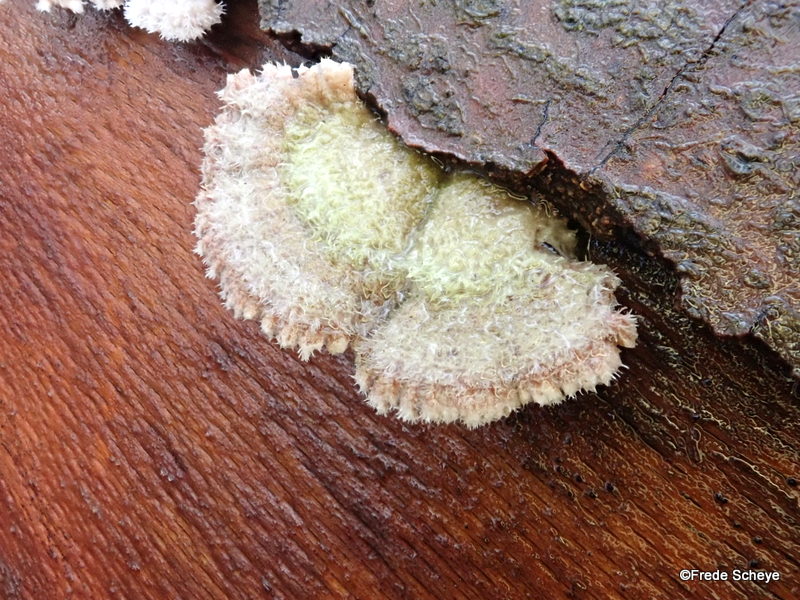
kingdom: Fungi
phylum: Basidiomycota
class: Agaricomycetes
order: Agaricales
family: Schizophyllaceae
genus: Schizophyllum
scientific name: Schizophyllum commune
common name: kløvblad
